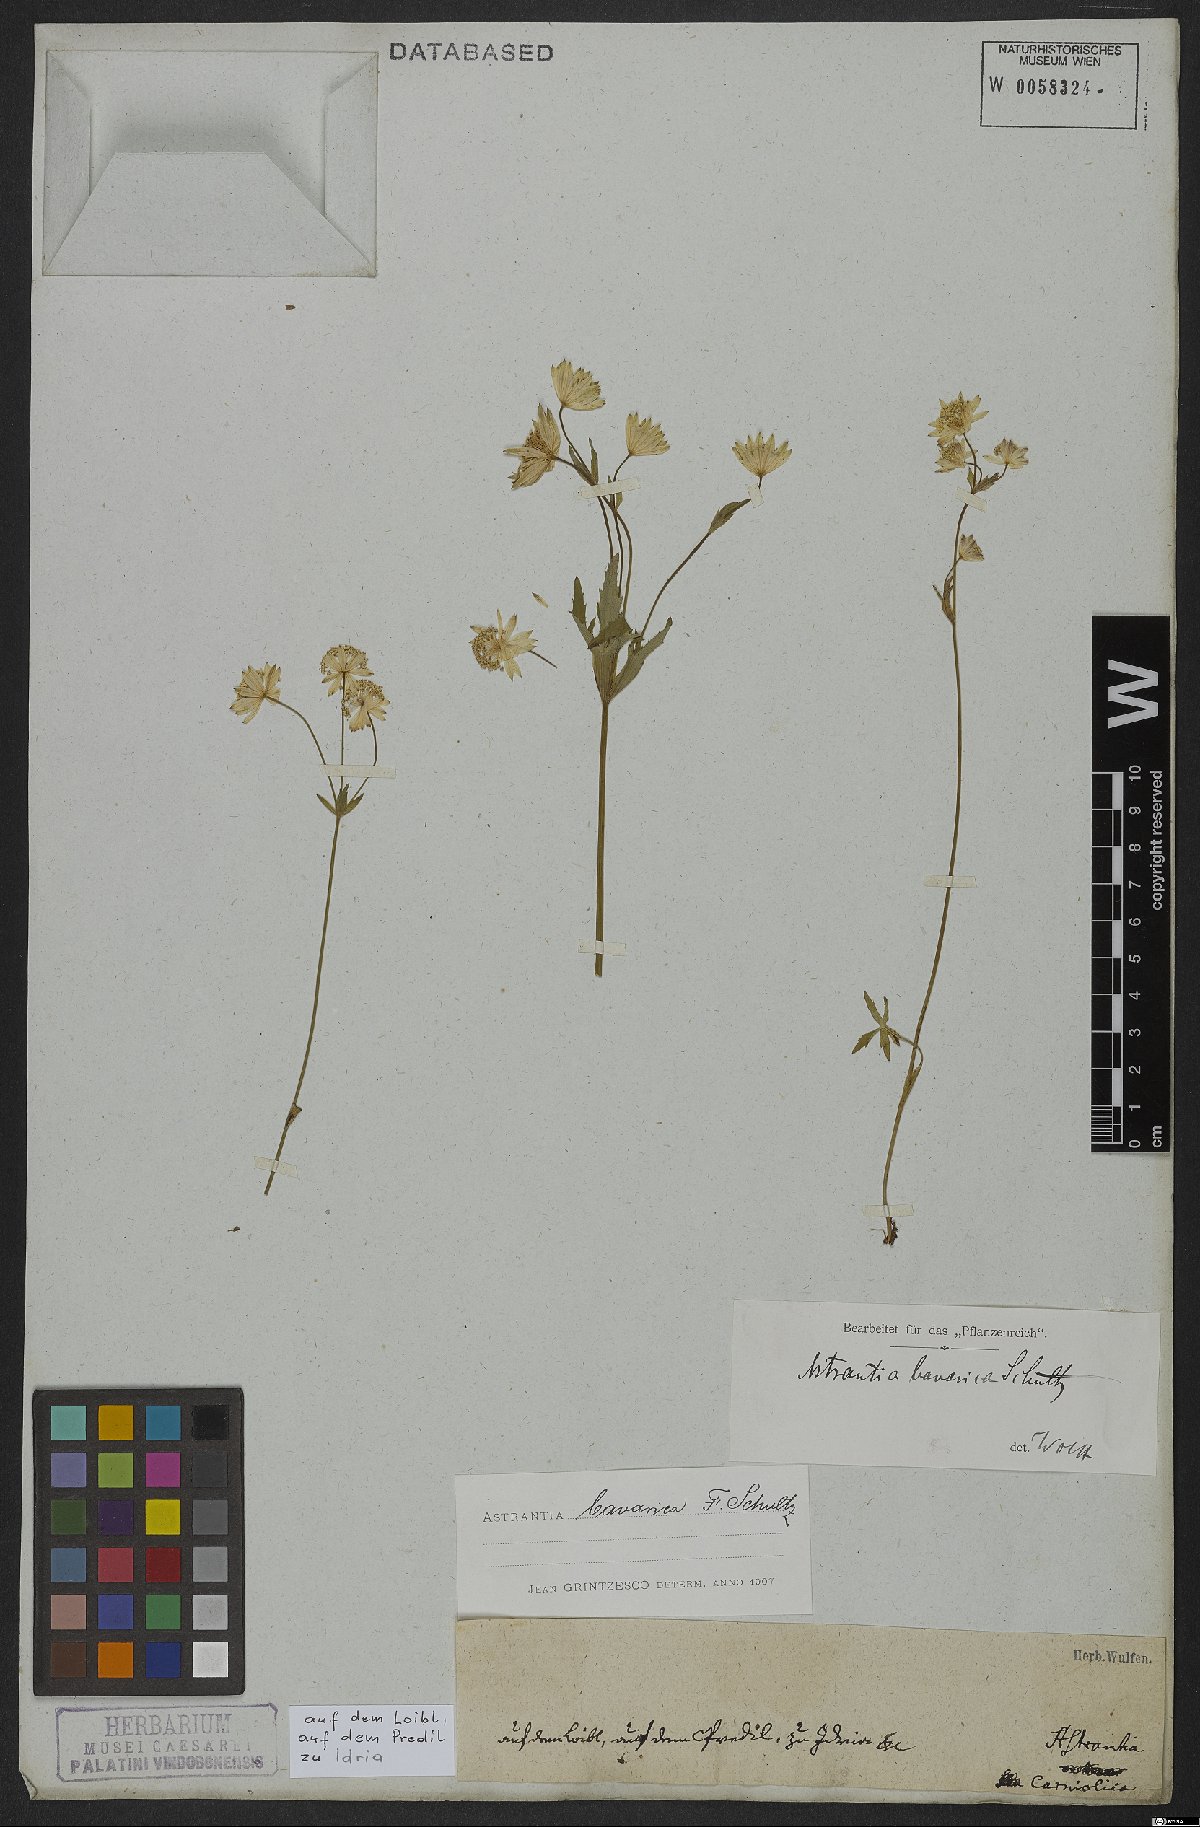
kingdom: Plantae
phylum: Tracheophyta
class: Magnoliopsida
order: Apiales
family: Apiaceae
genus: Astrantia
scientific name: Astrantia bavarica
